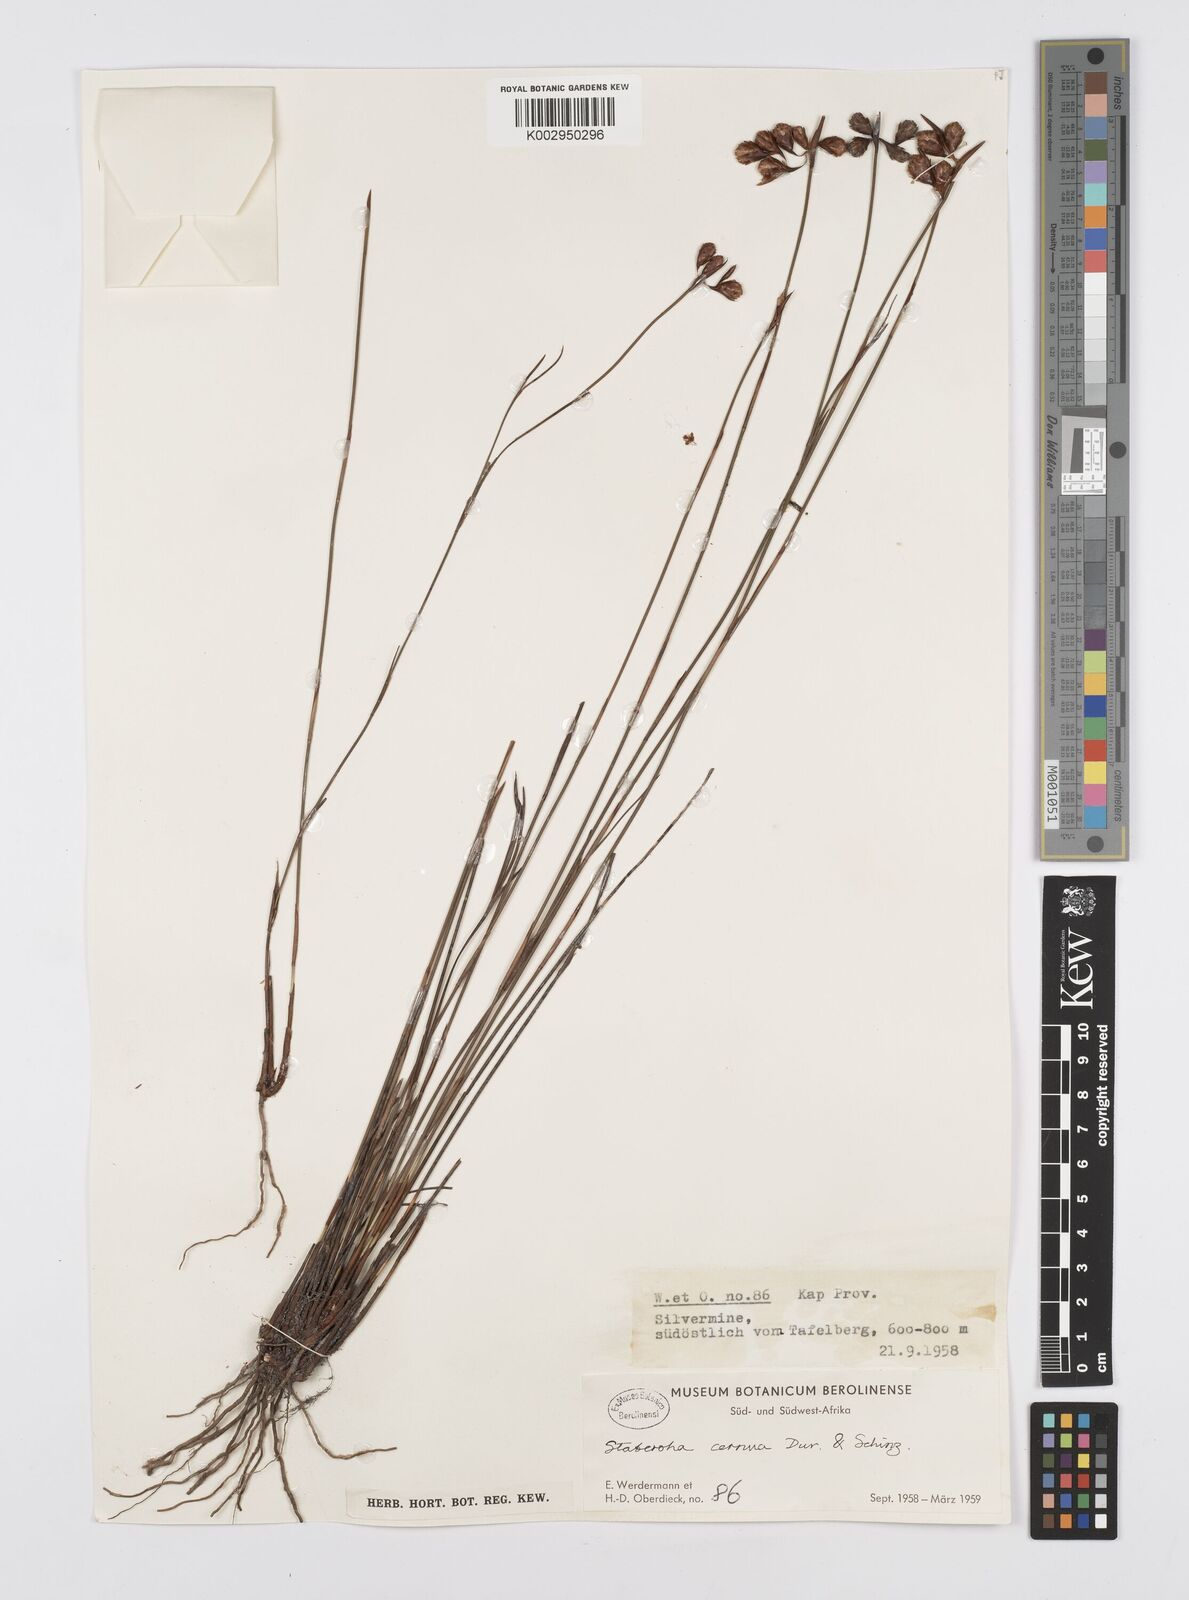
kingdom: Plantae
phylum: Tracheophyta
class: Liliopsida
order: Poales
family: Restionaceae
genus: Staberoha
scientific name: Staberoha cernua
